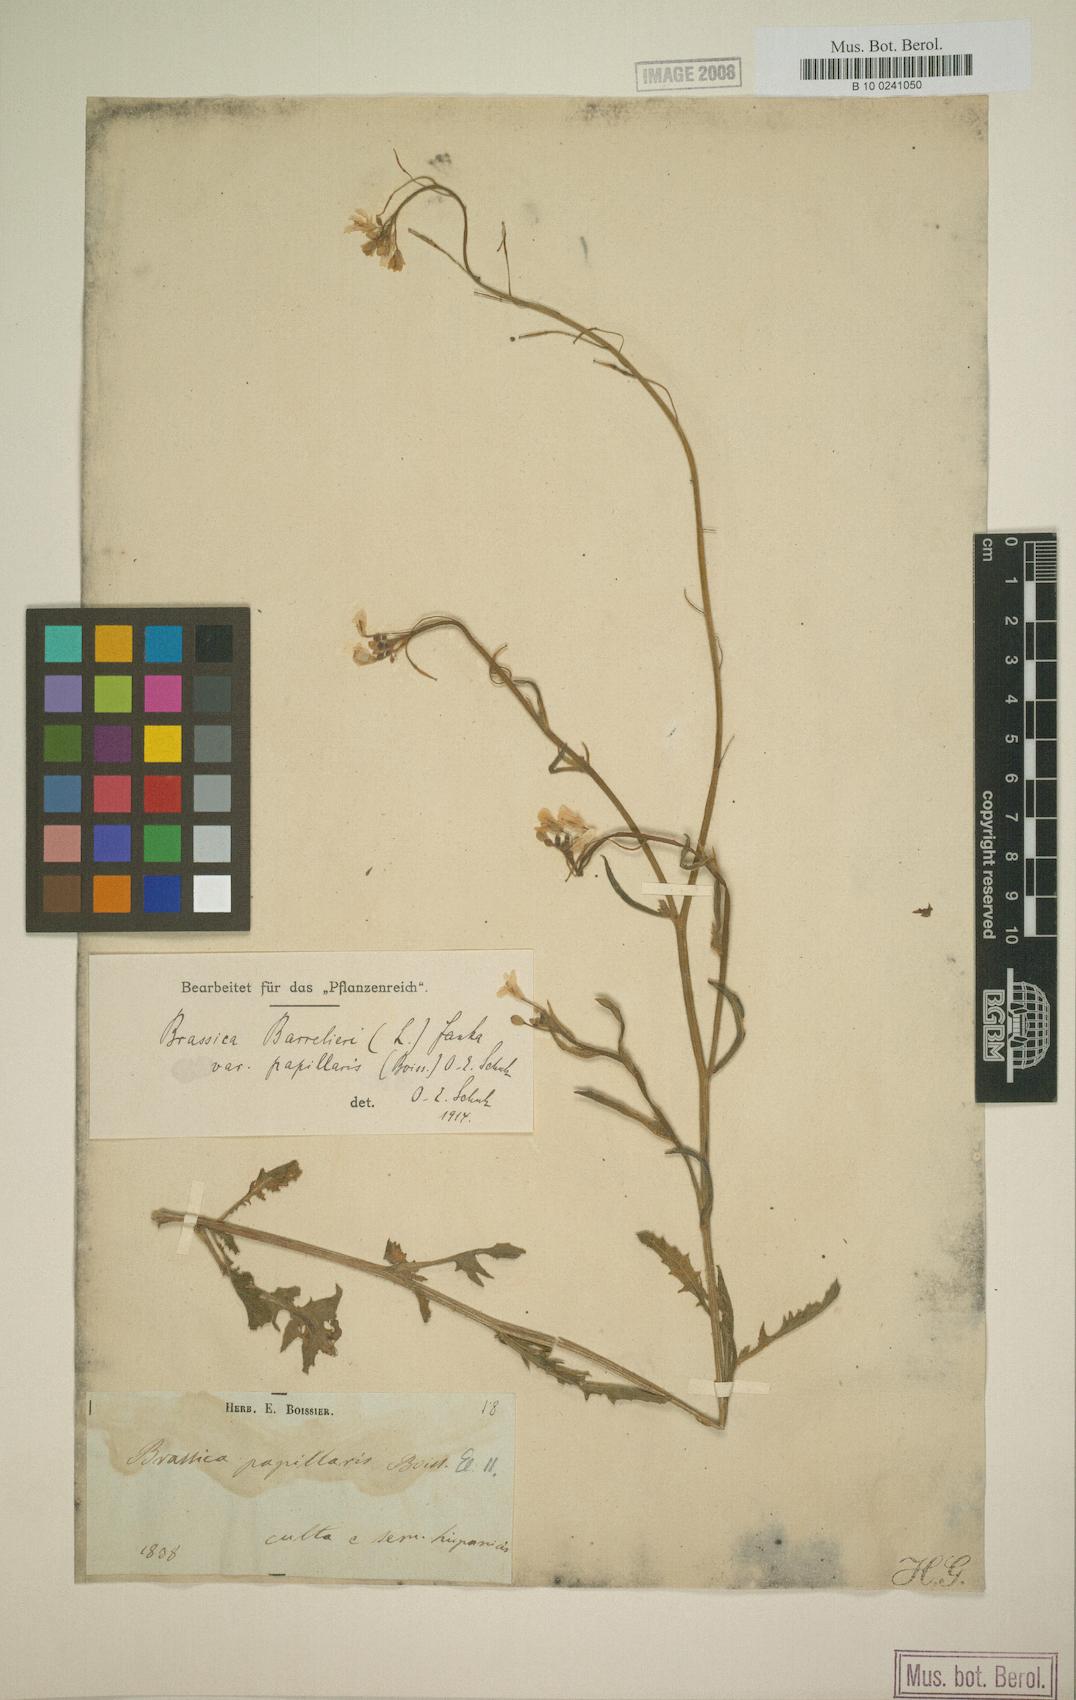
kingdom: Plantae
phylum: Tracheophyta
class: Magnoliopsida
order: Brassicales
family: Brassicaceae
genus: Brassica
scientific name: Brassica barrelieri
